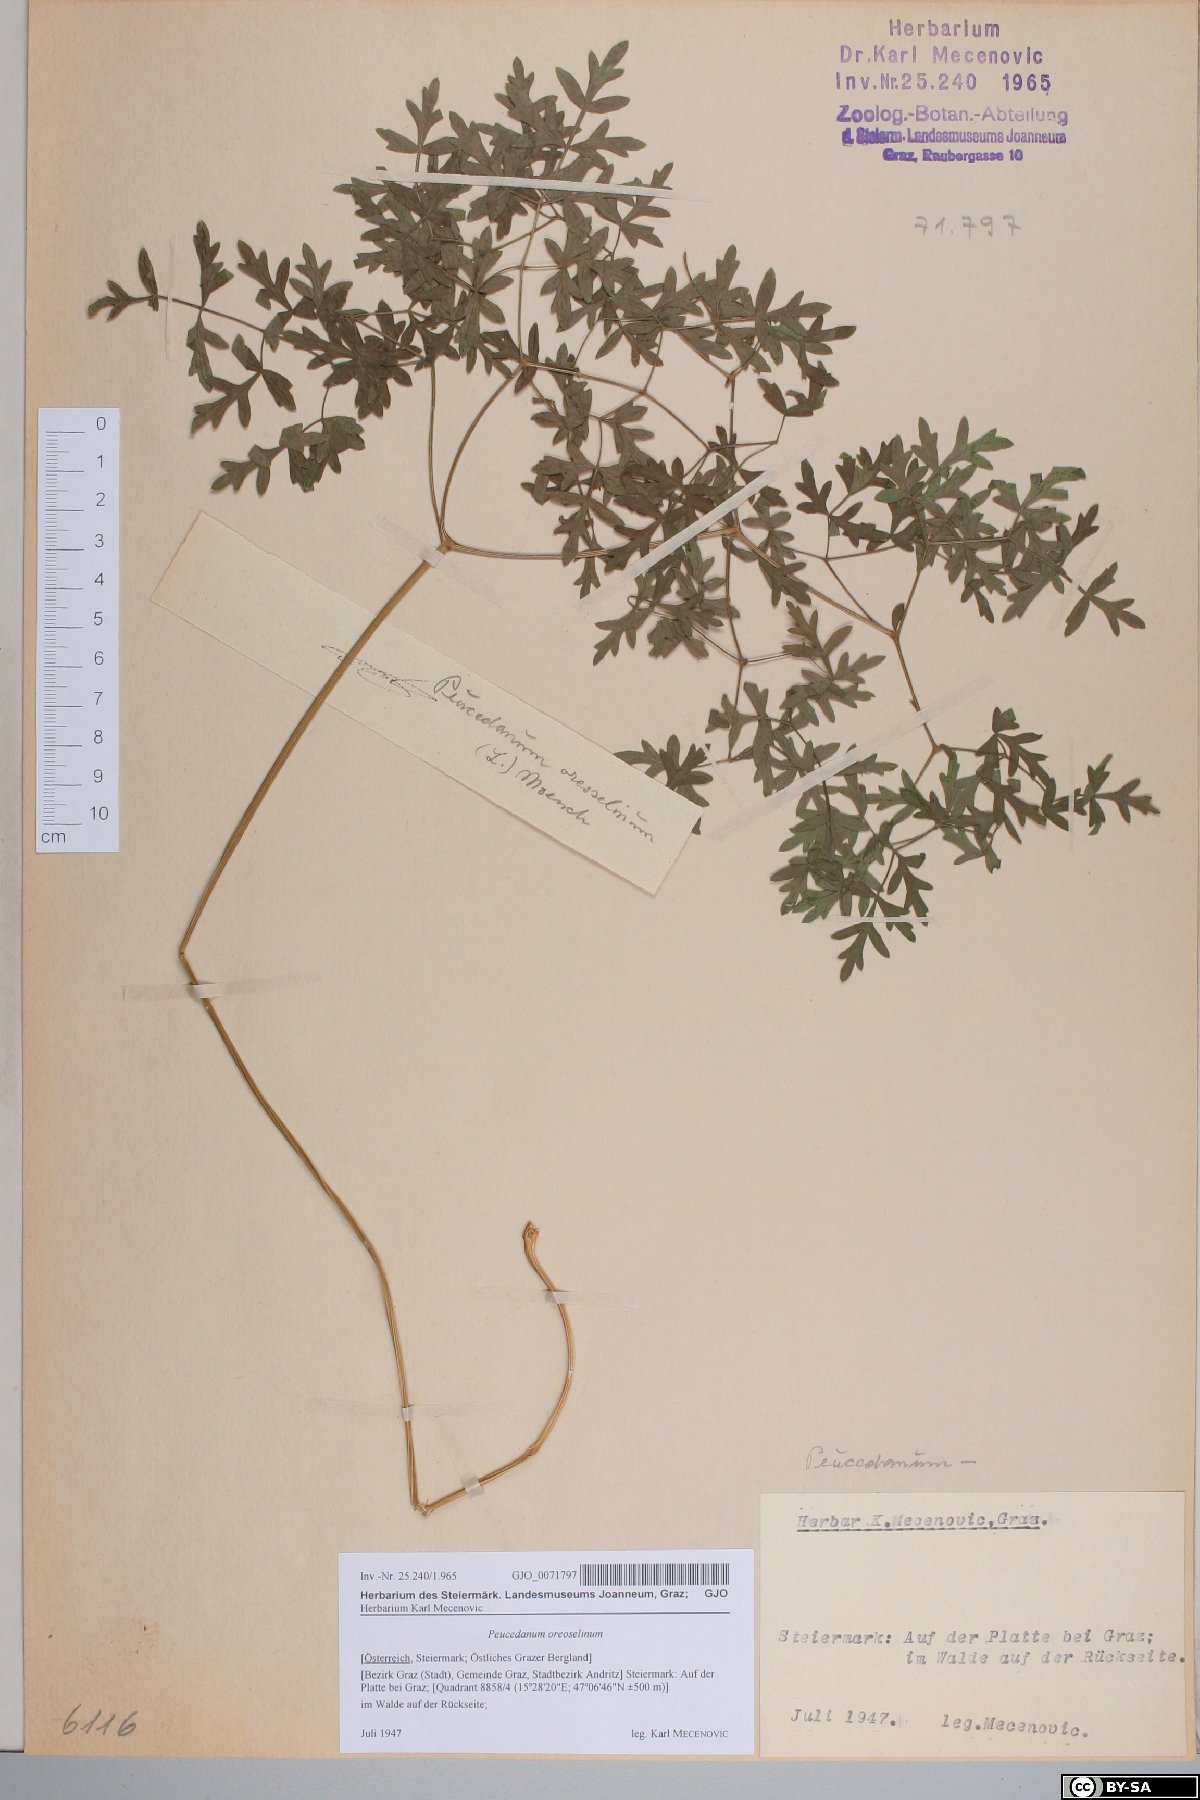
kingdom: Plantae
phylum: Tracheophyta
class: Magnoliopsida
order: Apiales
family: Apiaceae
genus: Oreoselinum
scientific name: Oreoselinum nigrum
